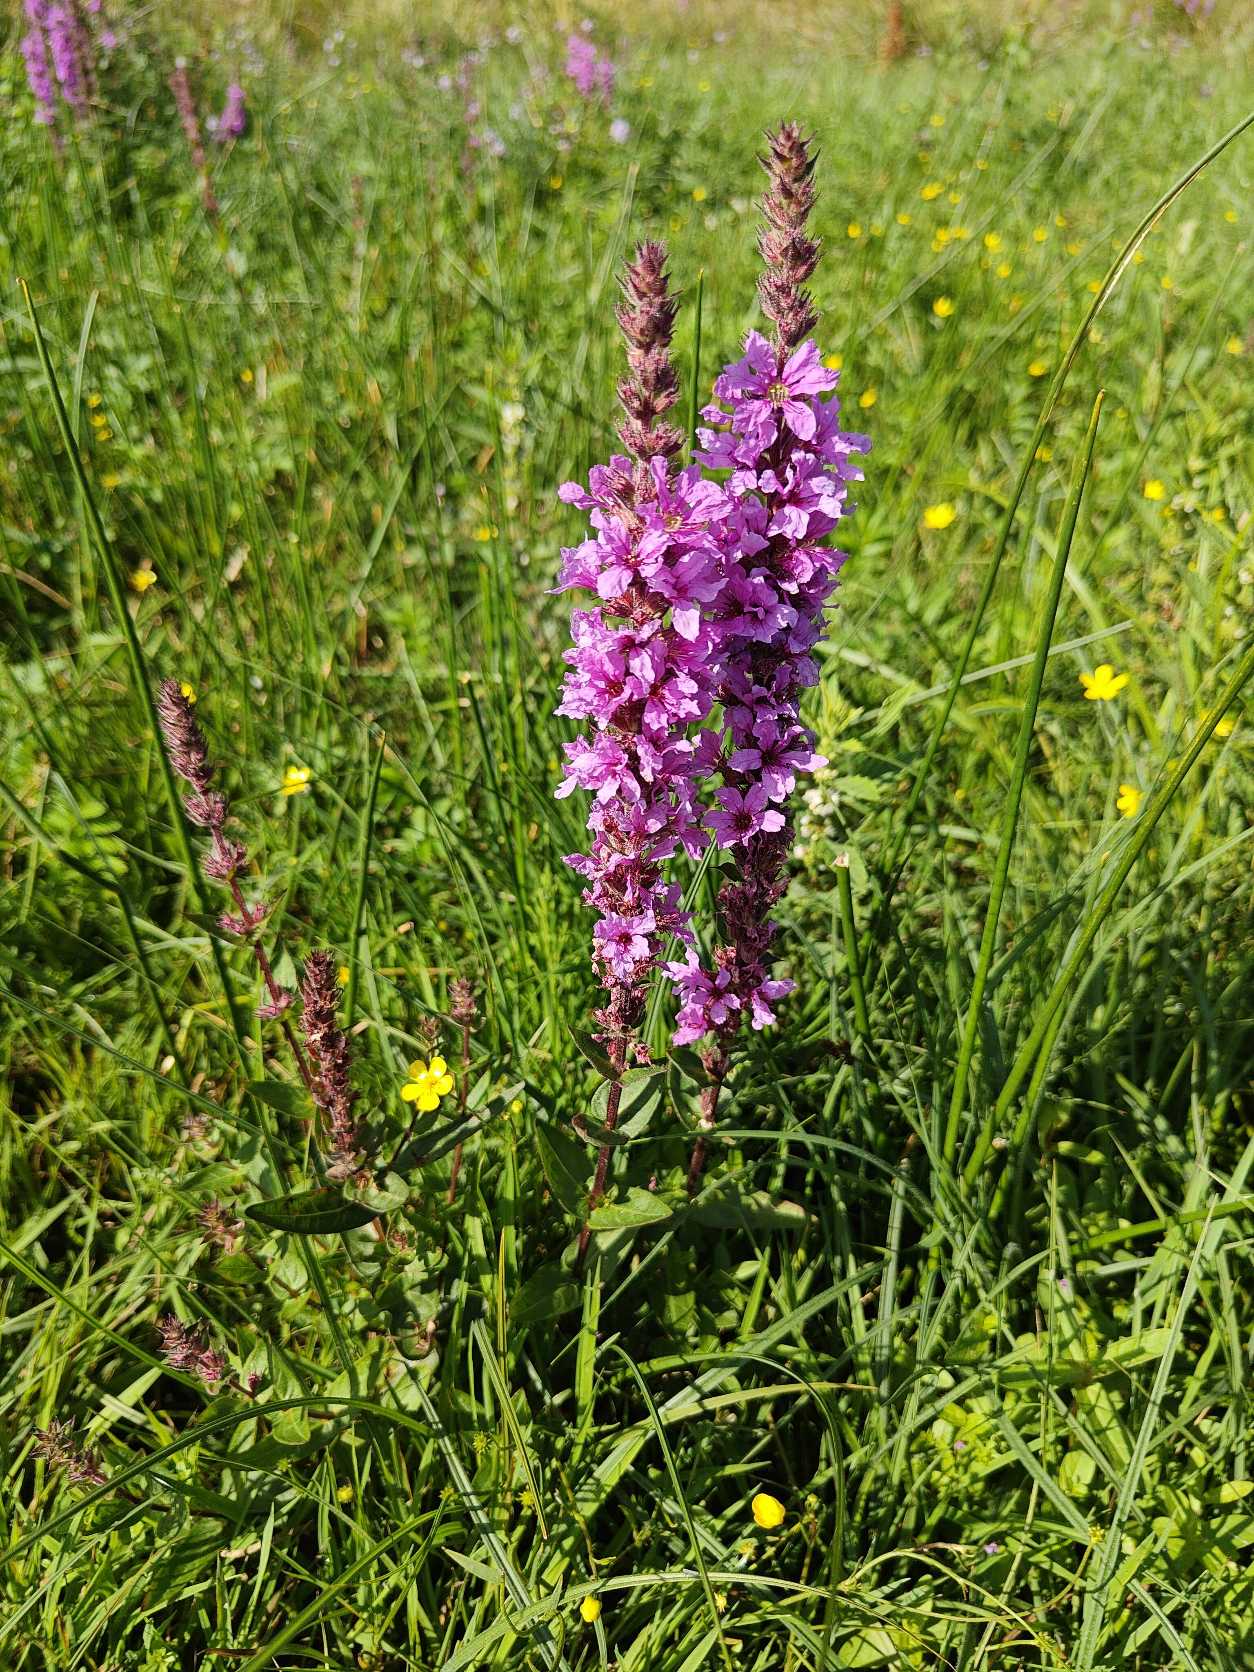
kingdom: Plantae
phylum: Tracheophyta
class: Magnoliopsida
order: Myrtales
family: Lythraceae
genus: Lythrum
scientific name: Lythrum salicaria
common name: Kattehale
